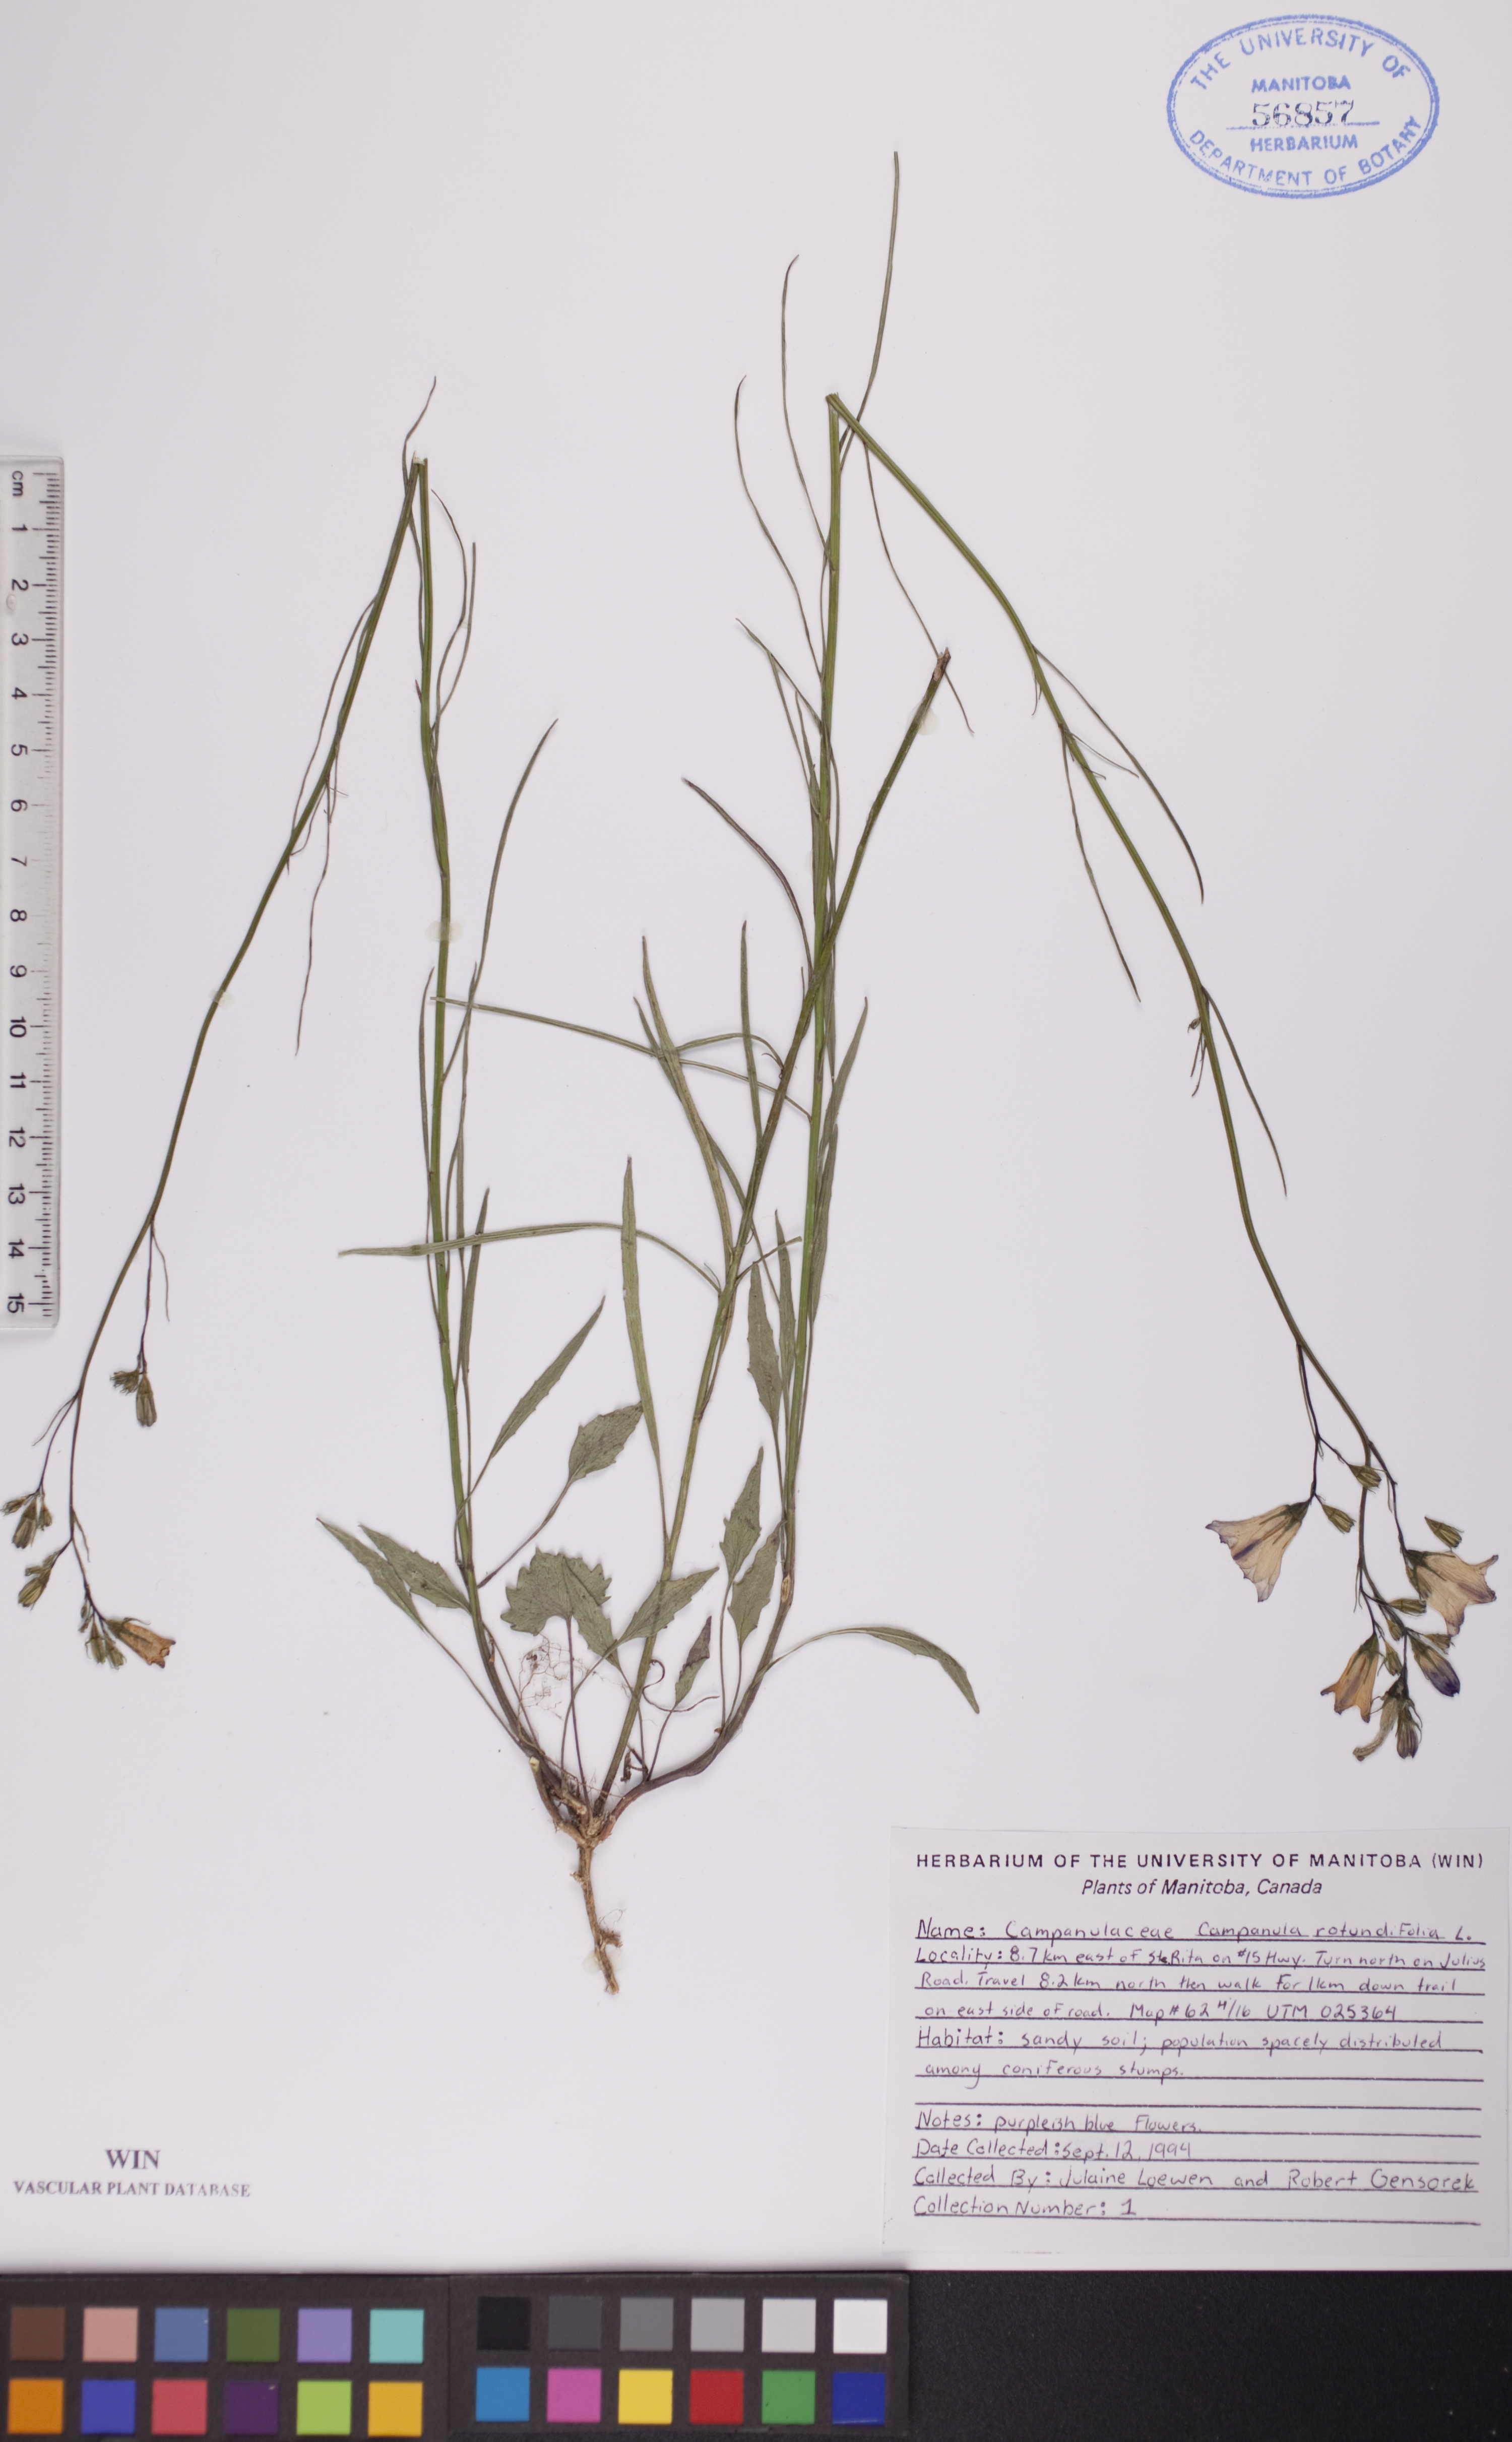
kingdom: Plantae
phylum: Tracheophyta
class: Magnoliopsida
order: Asterales
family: Campanulaceae
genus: Campanula
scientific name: Campanula rotundifolia
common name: Harebell
